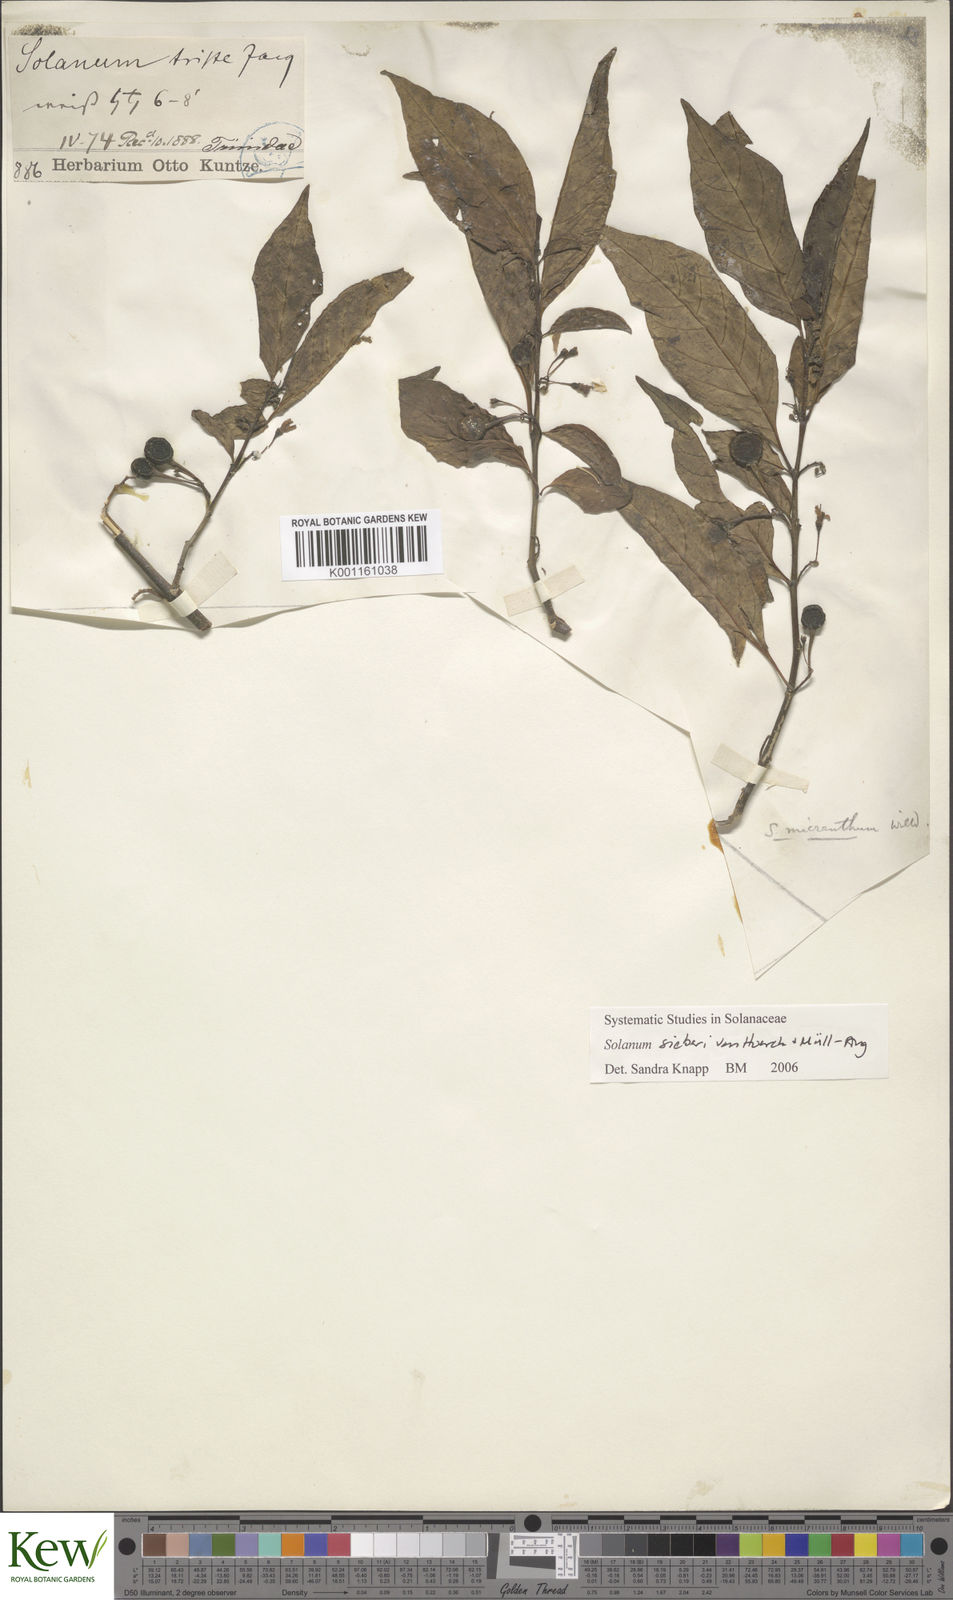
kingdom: Plantae
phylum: Tracheophyta
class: Magnoliopsida
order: Solanales
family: Solanaceae
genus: Solanum
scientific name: Solanum sieberi
